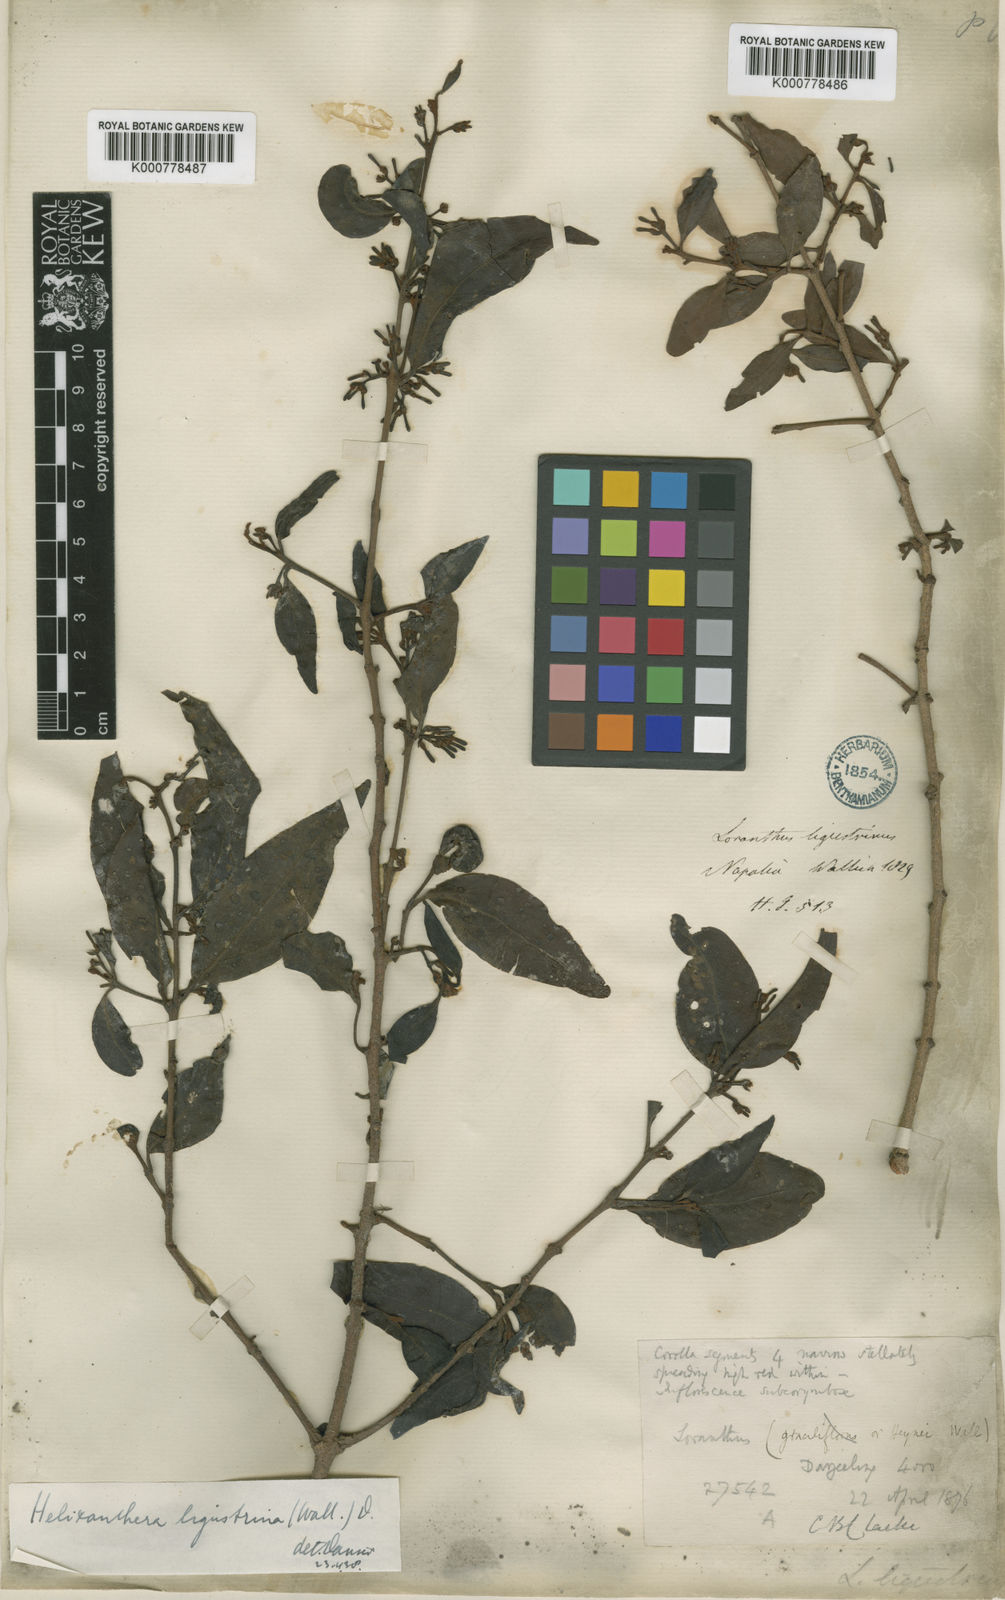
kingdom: Plantae
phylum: Tracheophyta
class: Magnoliopsida
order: Santalales
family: Loranthaceae
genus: Helixanthera
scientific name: Helixanthera ligustrina
